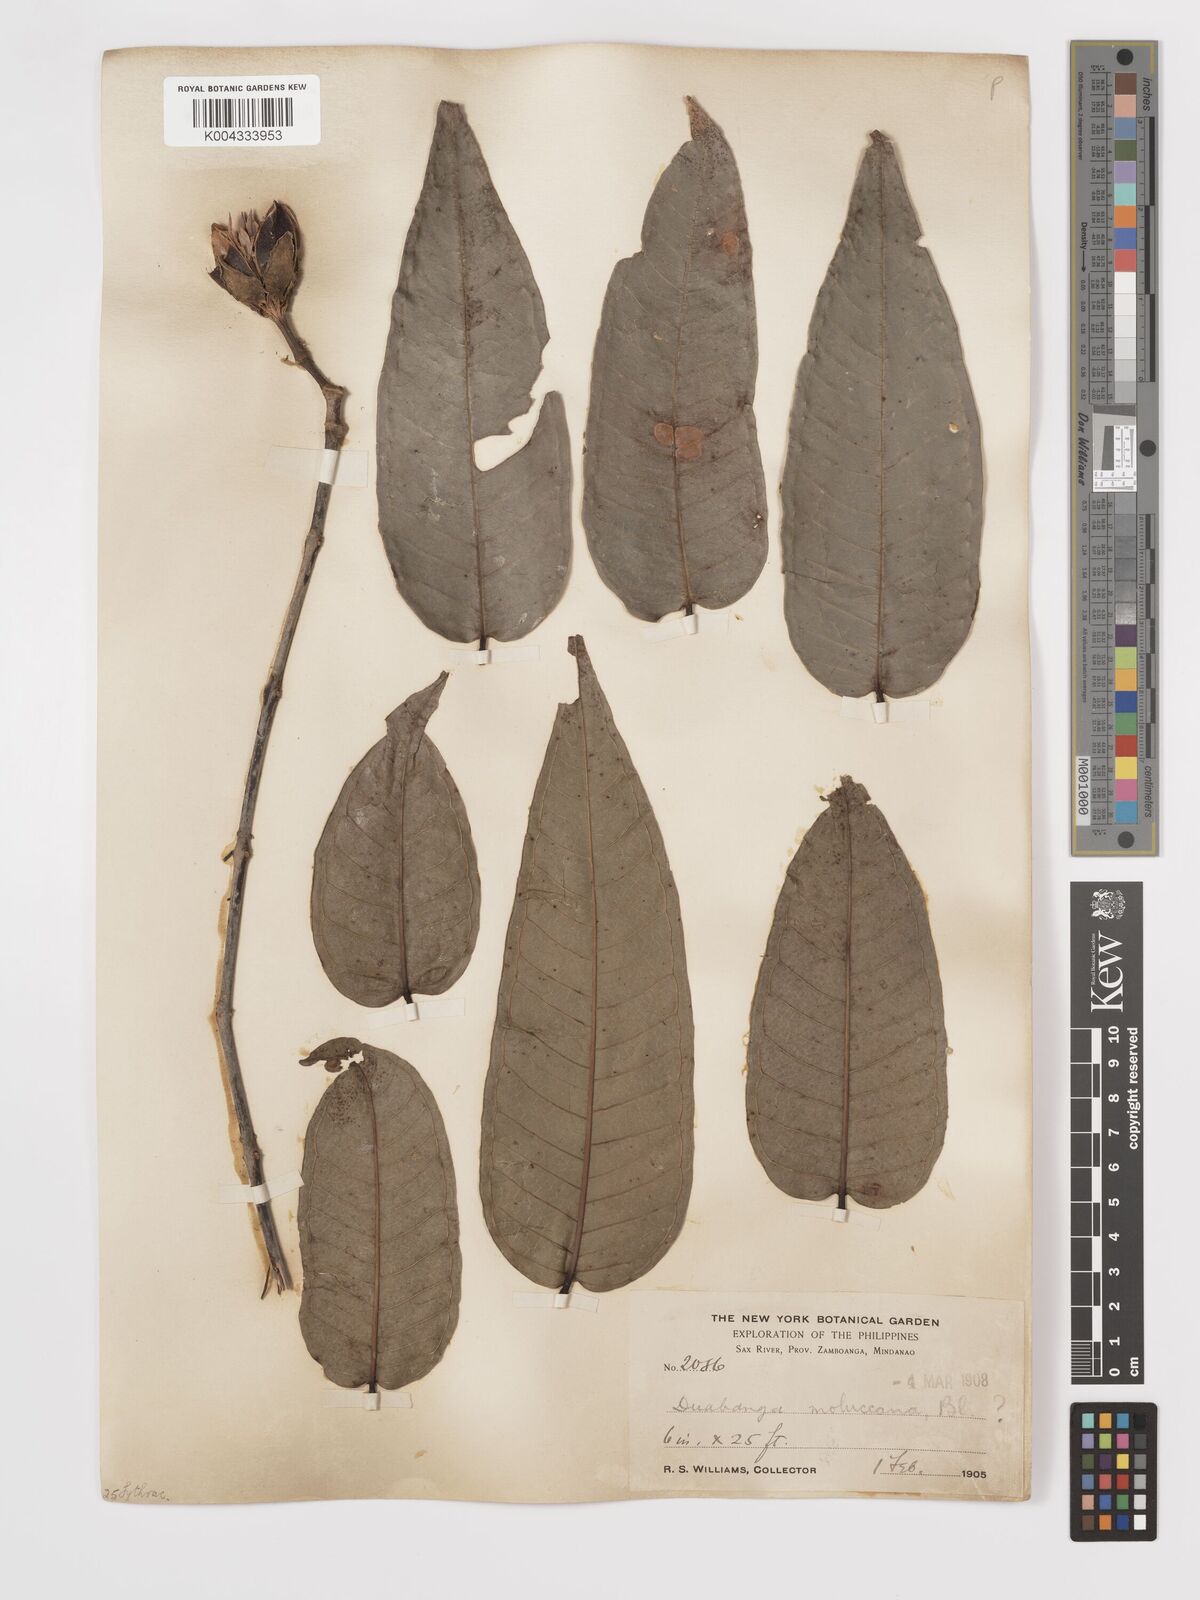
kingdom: Plantae
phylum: Tracheophyta
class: Magnoliopsida
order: Myrtales
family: Lythraceae
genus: Duabanga
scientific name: Duabanga moluccana
